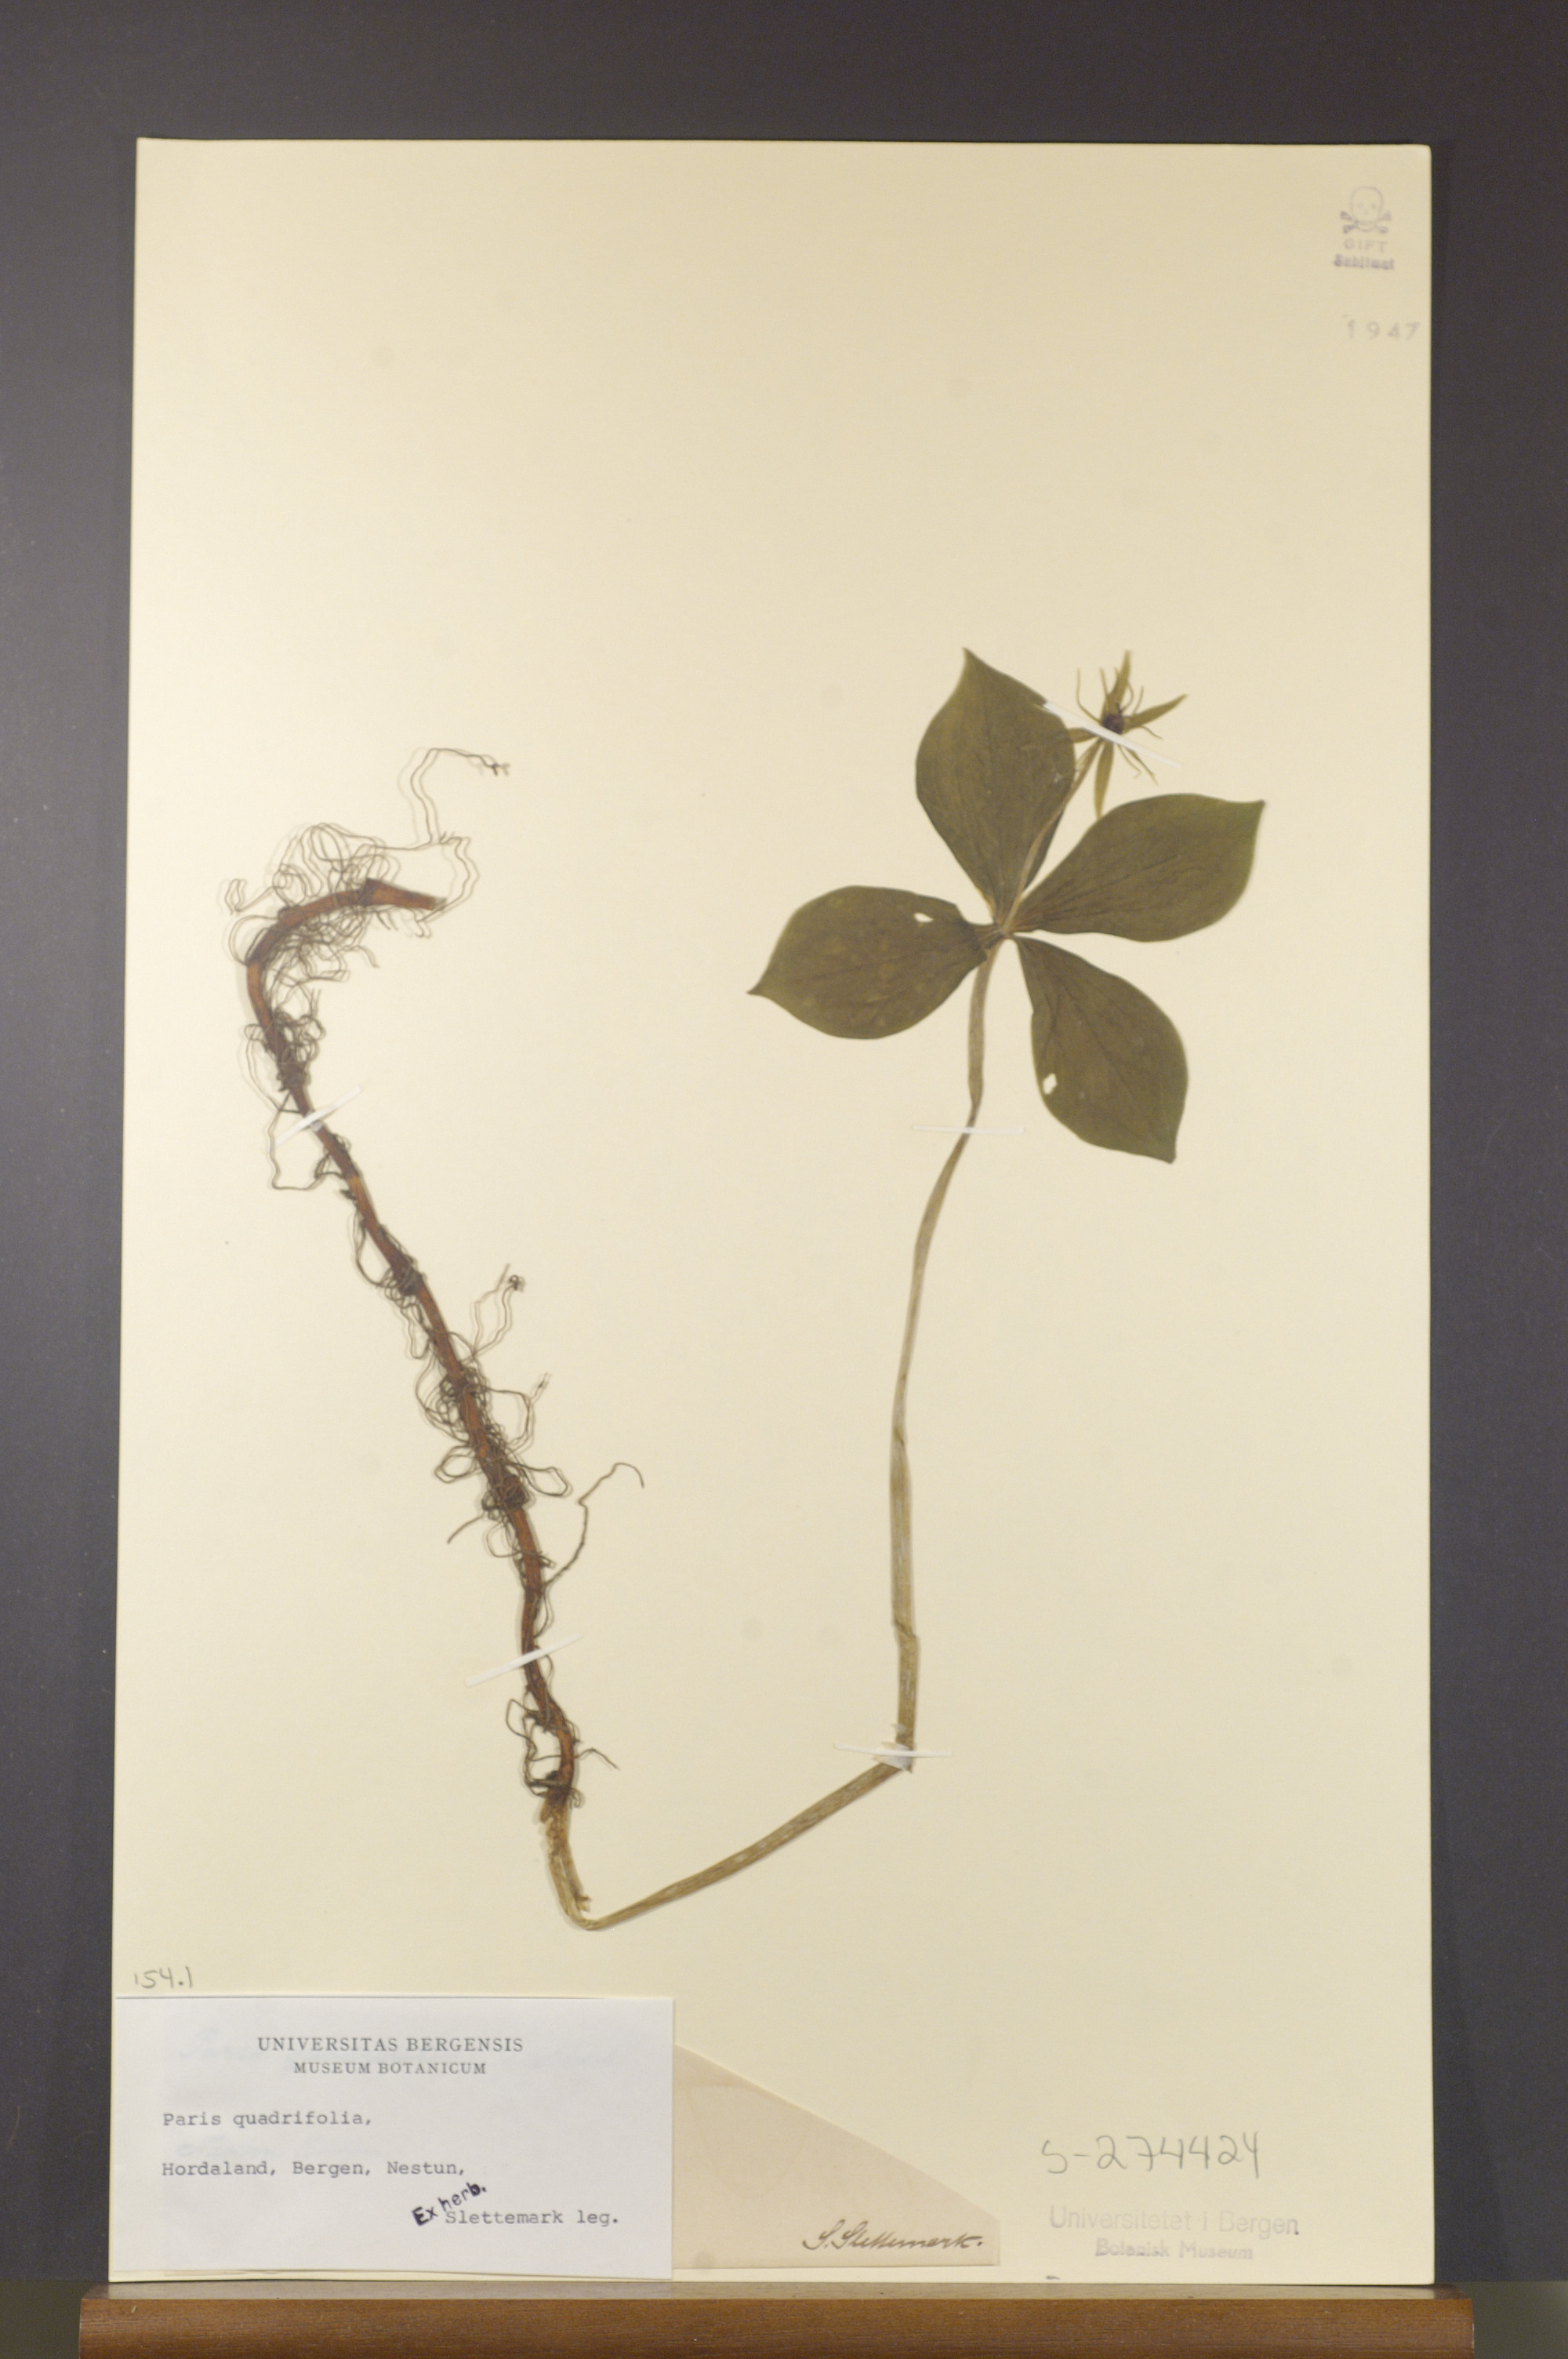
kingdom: Plantae
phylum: Tracheophyta
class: Liliopsida
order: Liliales
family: Melanthiaceae
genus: Paris
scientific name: Paris quadrifolia
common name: Herb-paris
